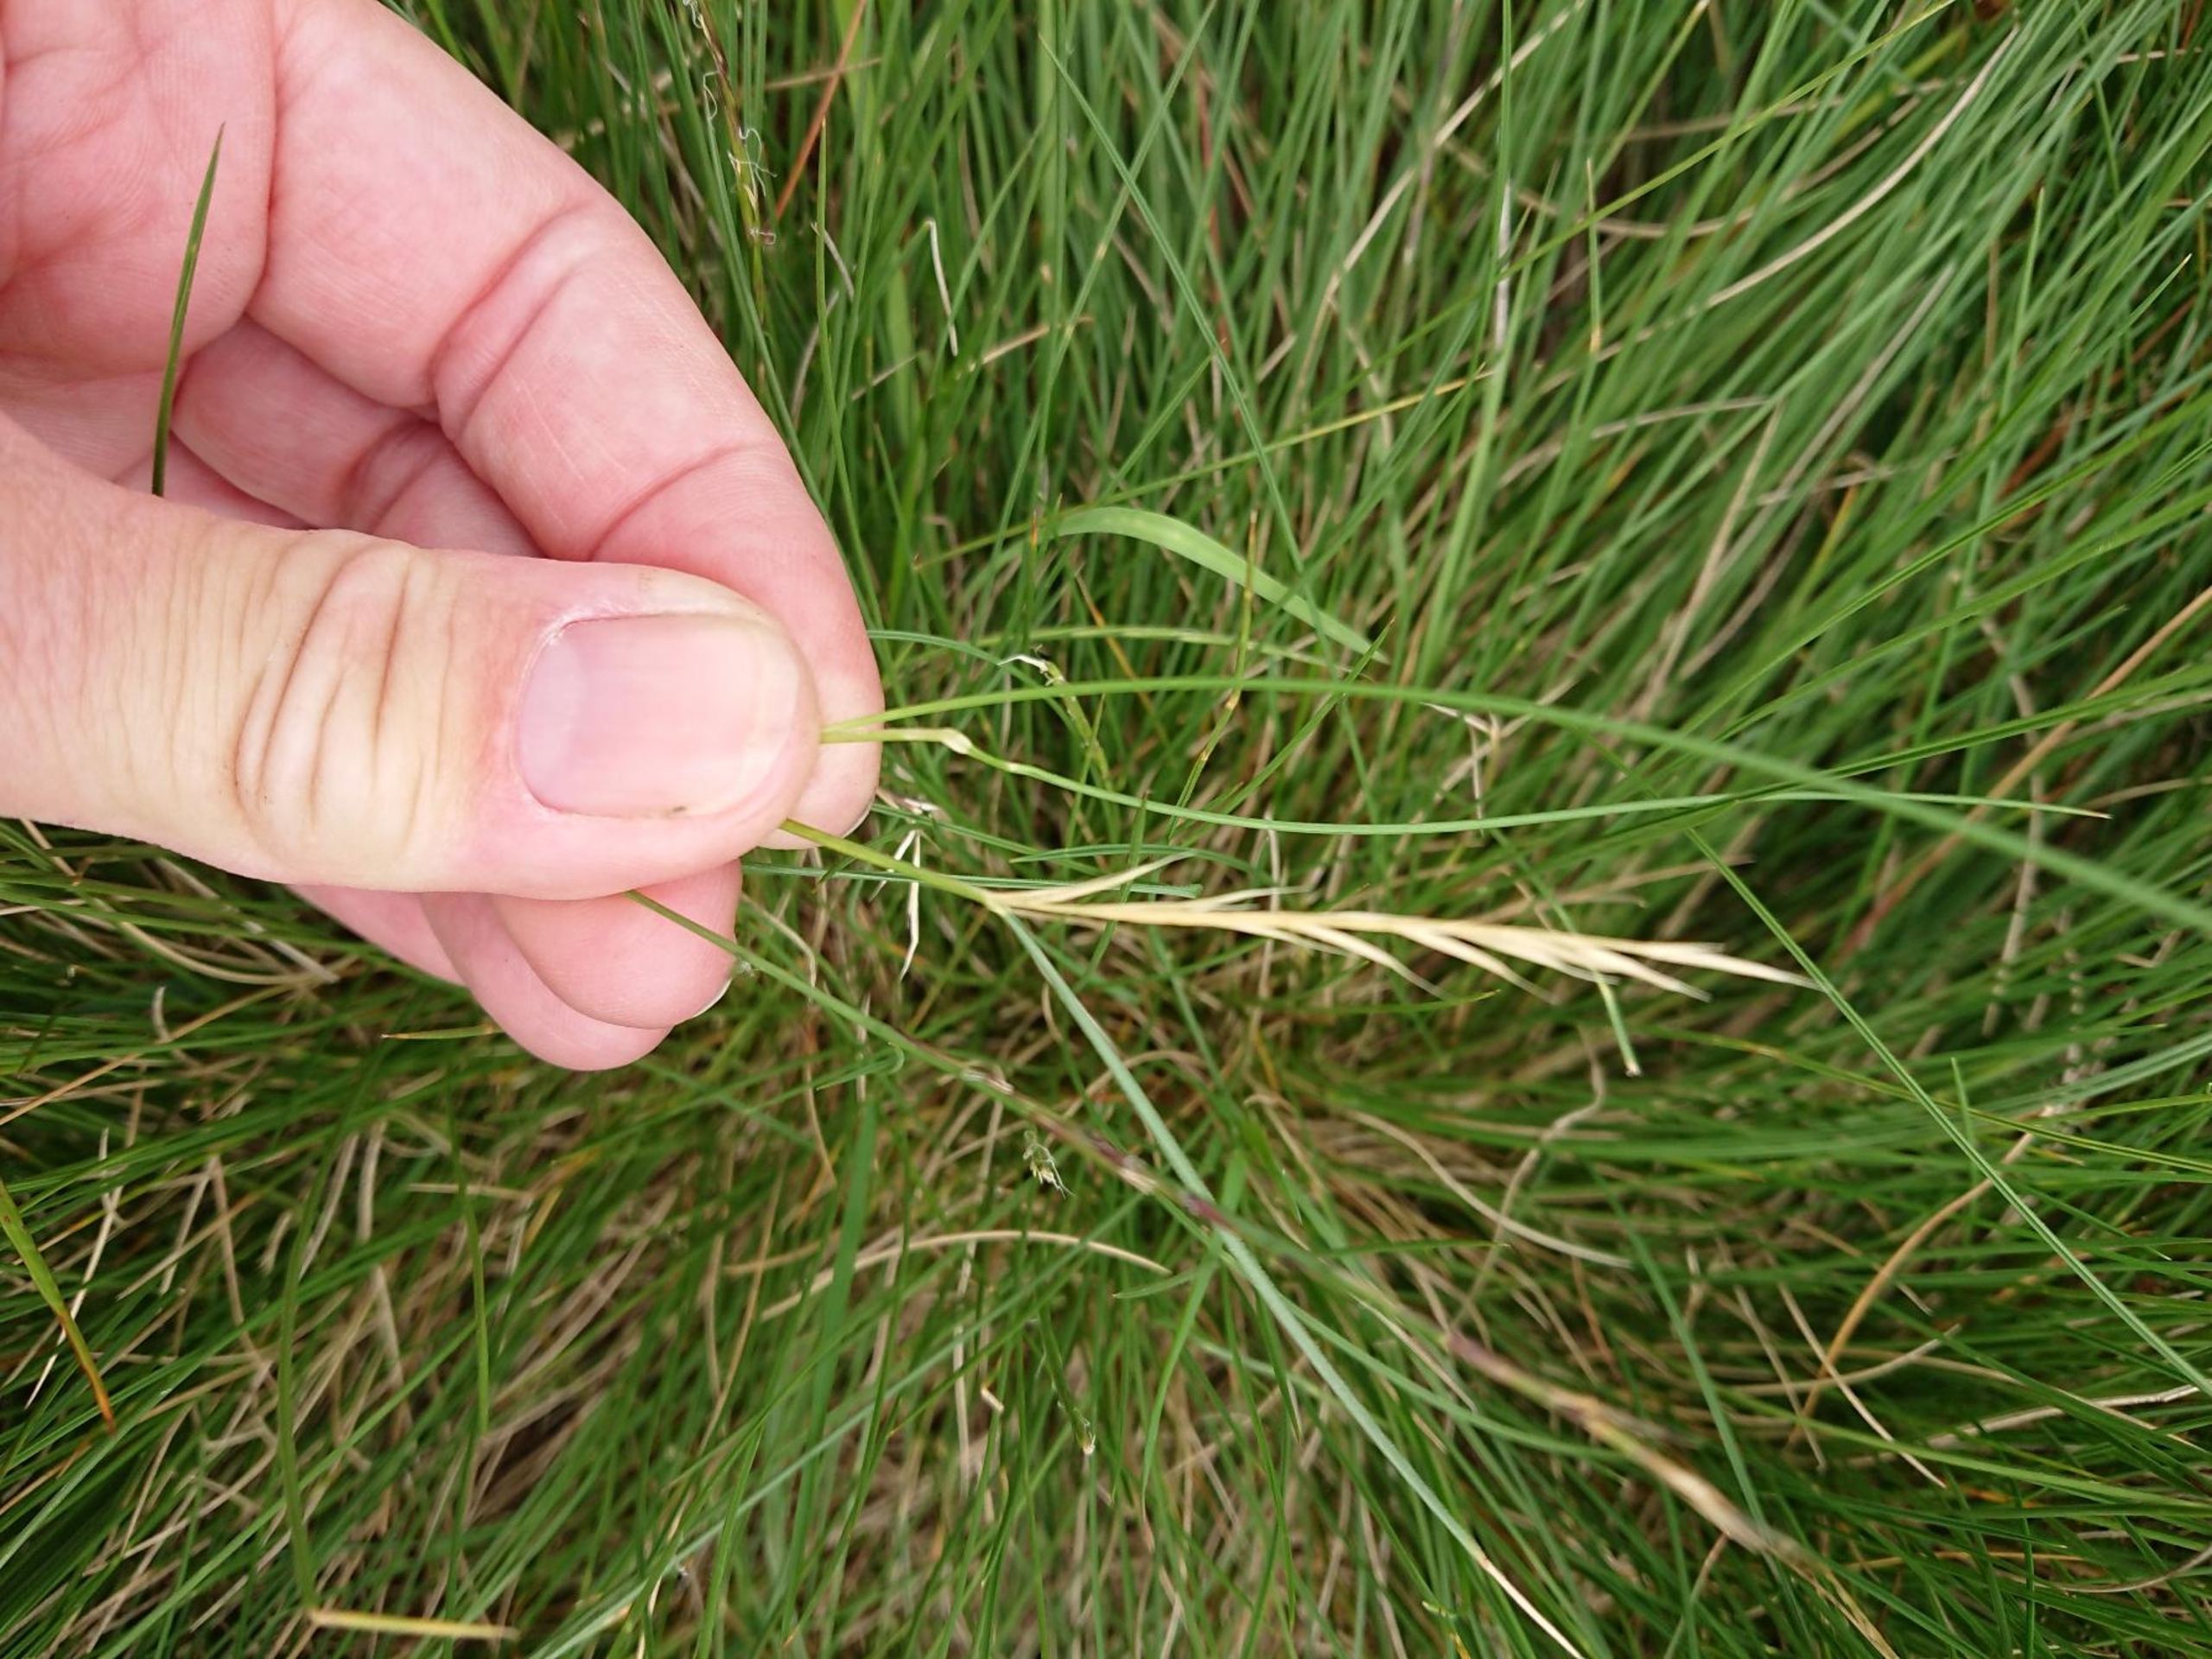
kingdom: Plantae
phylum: Tracheophyta
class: Liliopsida
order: Poales
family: Poaceae
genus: Nardus
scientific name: Nardus stricta
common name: Katteskæg
